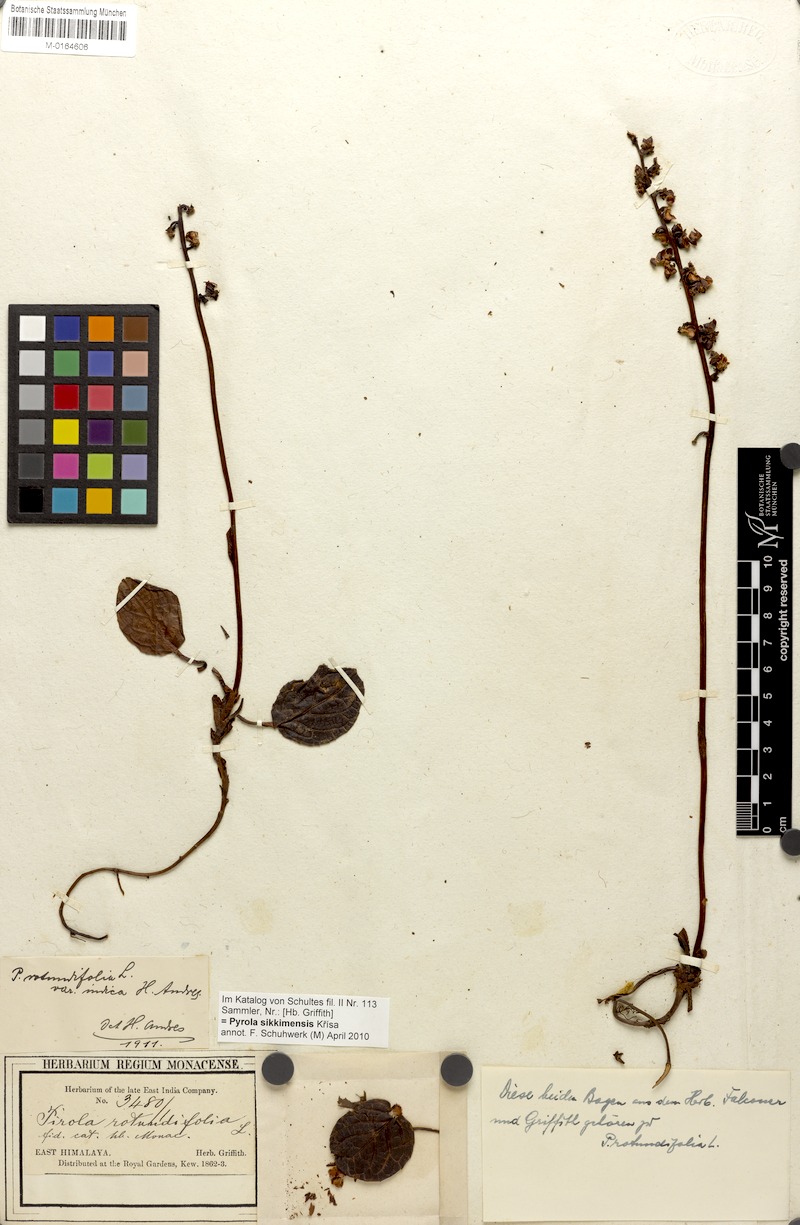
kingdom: Plantae
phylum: Tracheophyta
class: Magnoliopsida
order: Ericales
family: Ericaceae
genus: Pyrola
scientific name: Pyrola asarifolia
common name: Bog wintergreen
